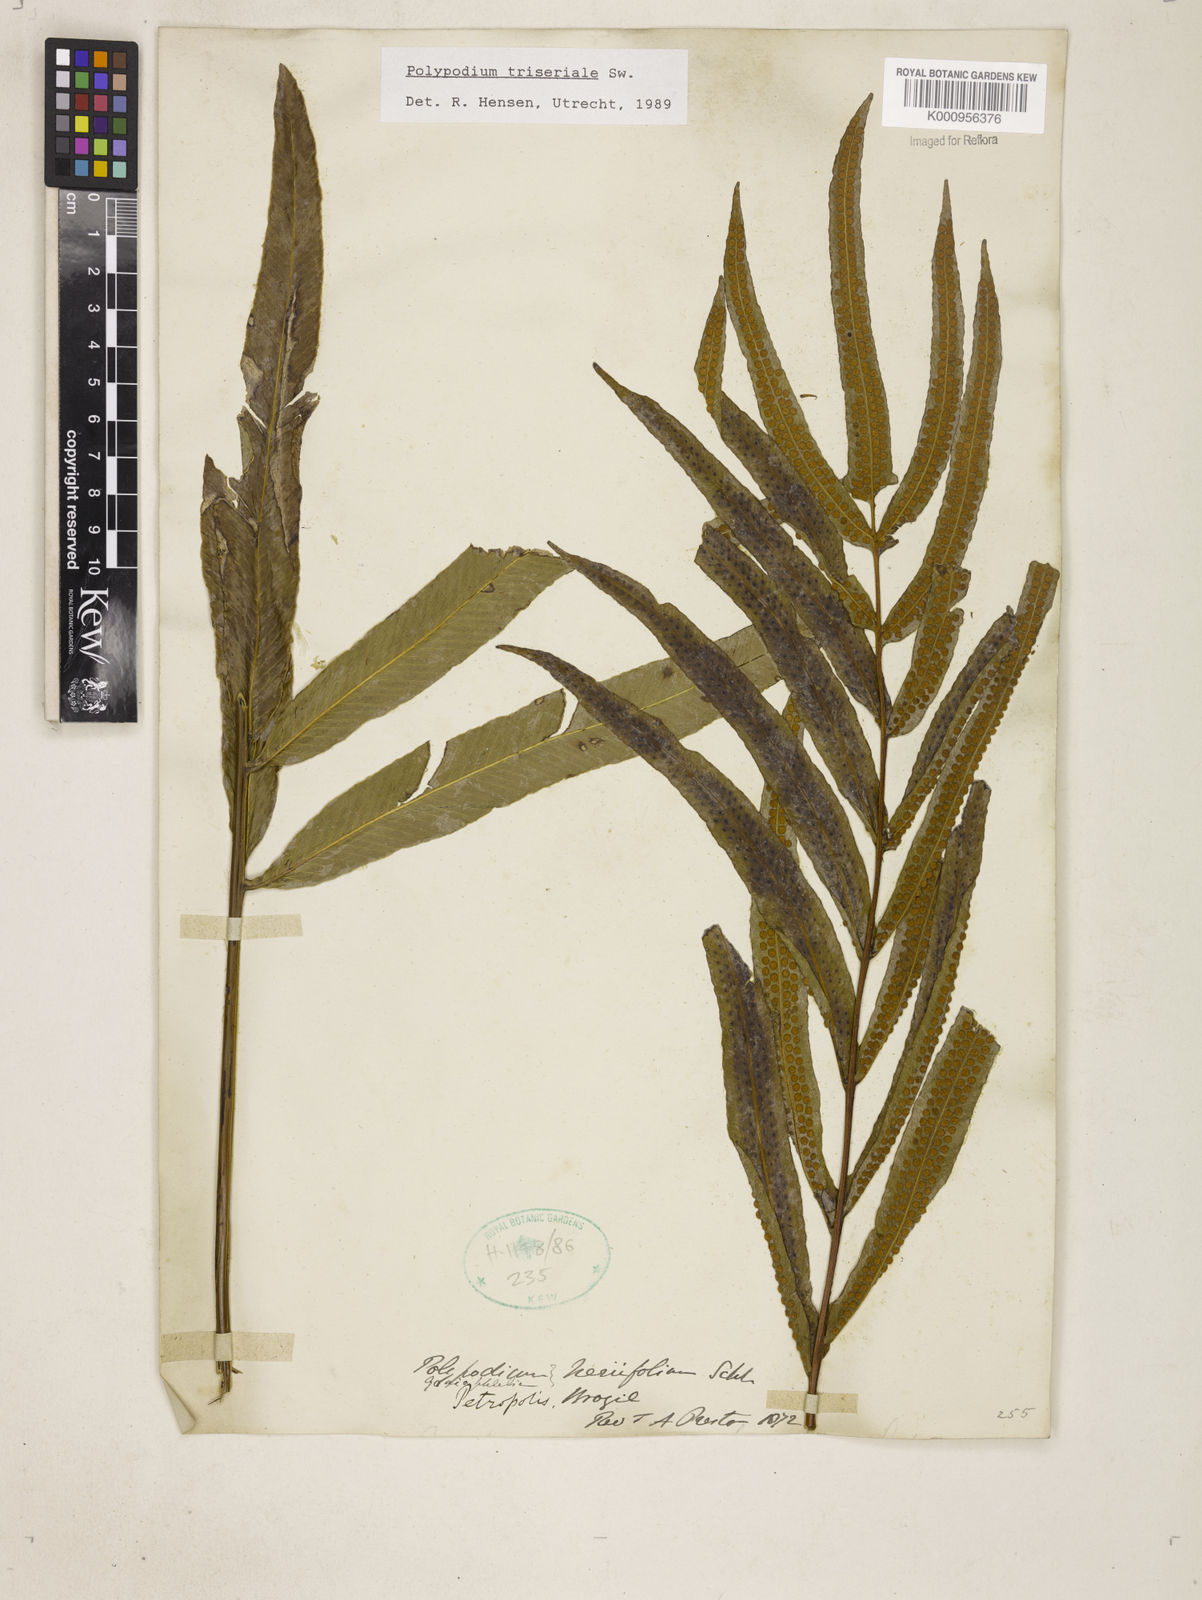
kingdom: Plantae
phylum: Tracheophyta
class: Polypodiopsida
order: Polypodiales
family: Polypodiaceae
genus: Serpocaulon
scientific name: Serpocaulon triseriale
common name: Angle-vein fern
